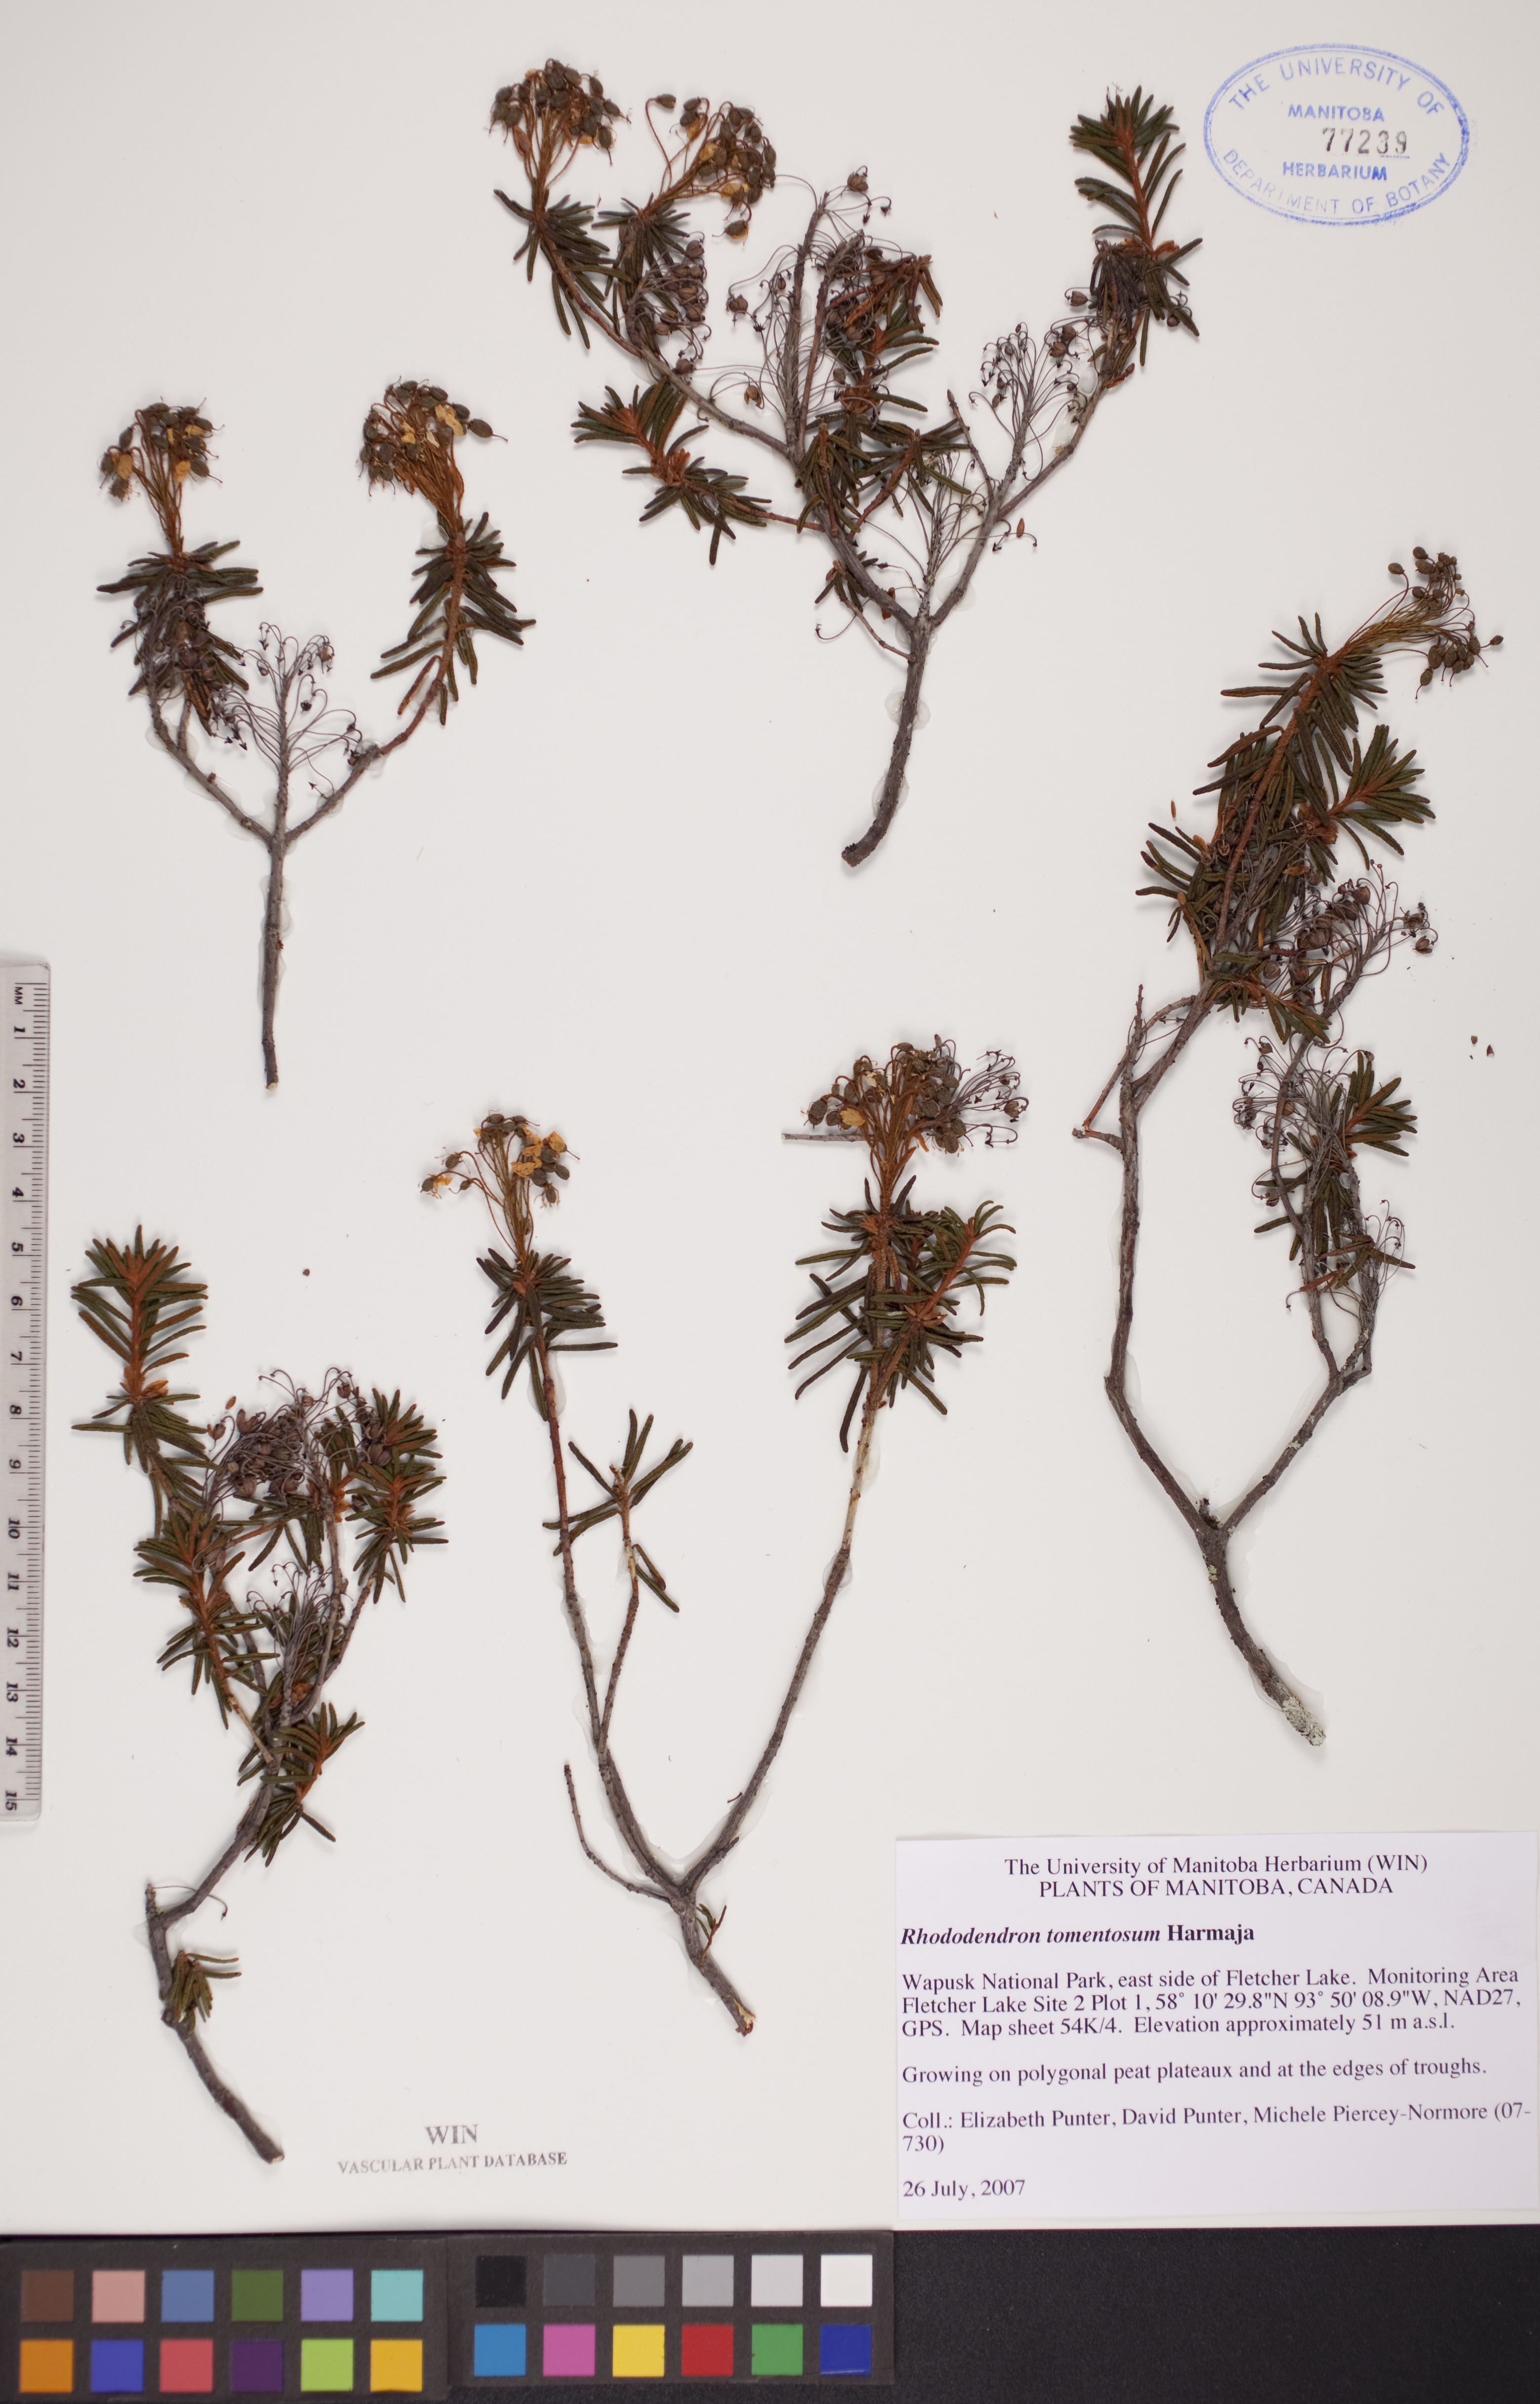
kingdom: Plantae
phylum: Tracheophyta
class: Magnoliopsida
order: Ericales
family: Ericaceae
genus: Rhododendron
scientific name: Rhododendron tomentosum
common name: Marsh labrador tea
